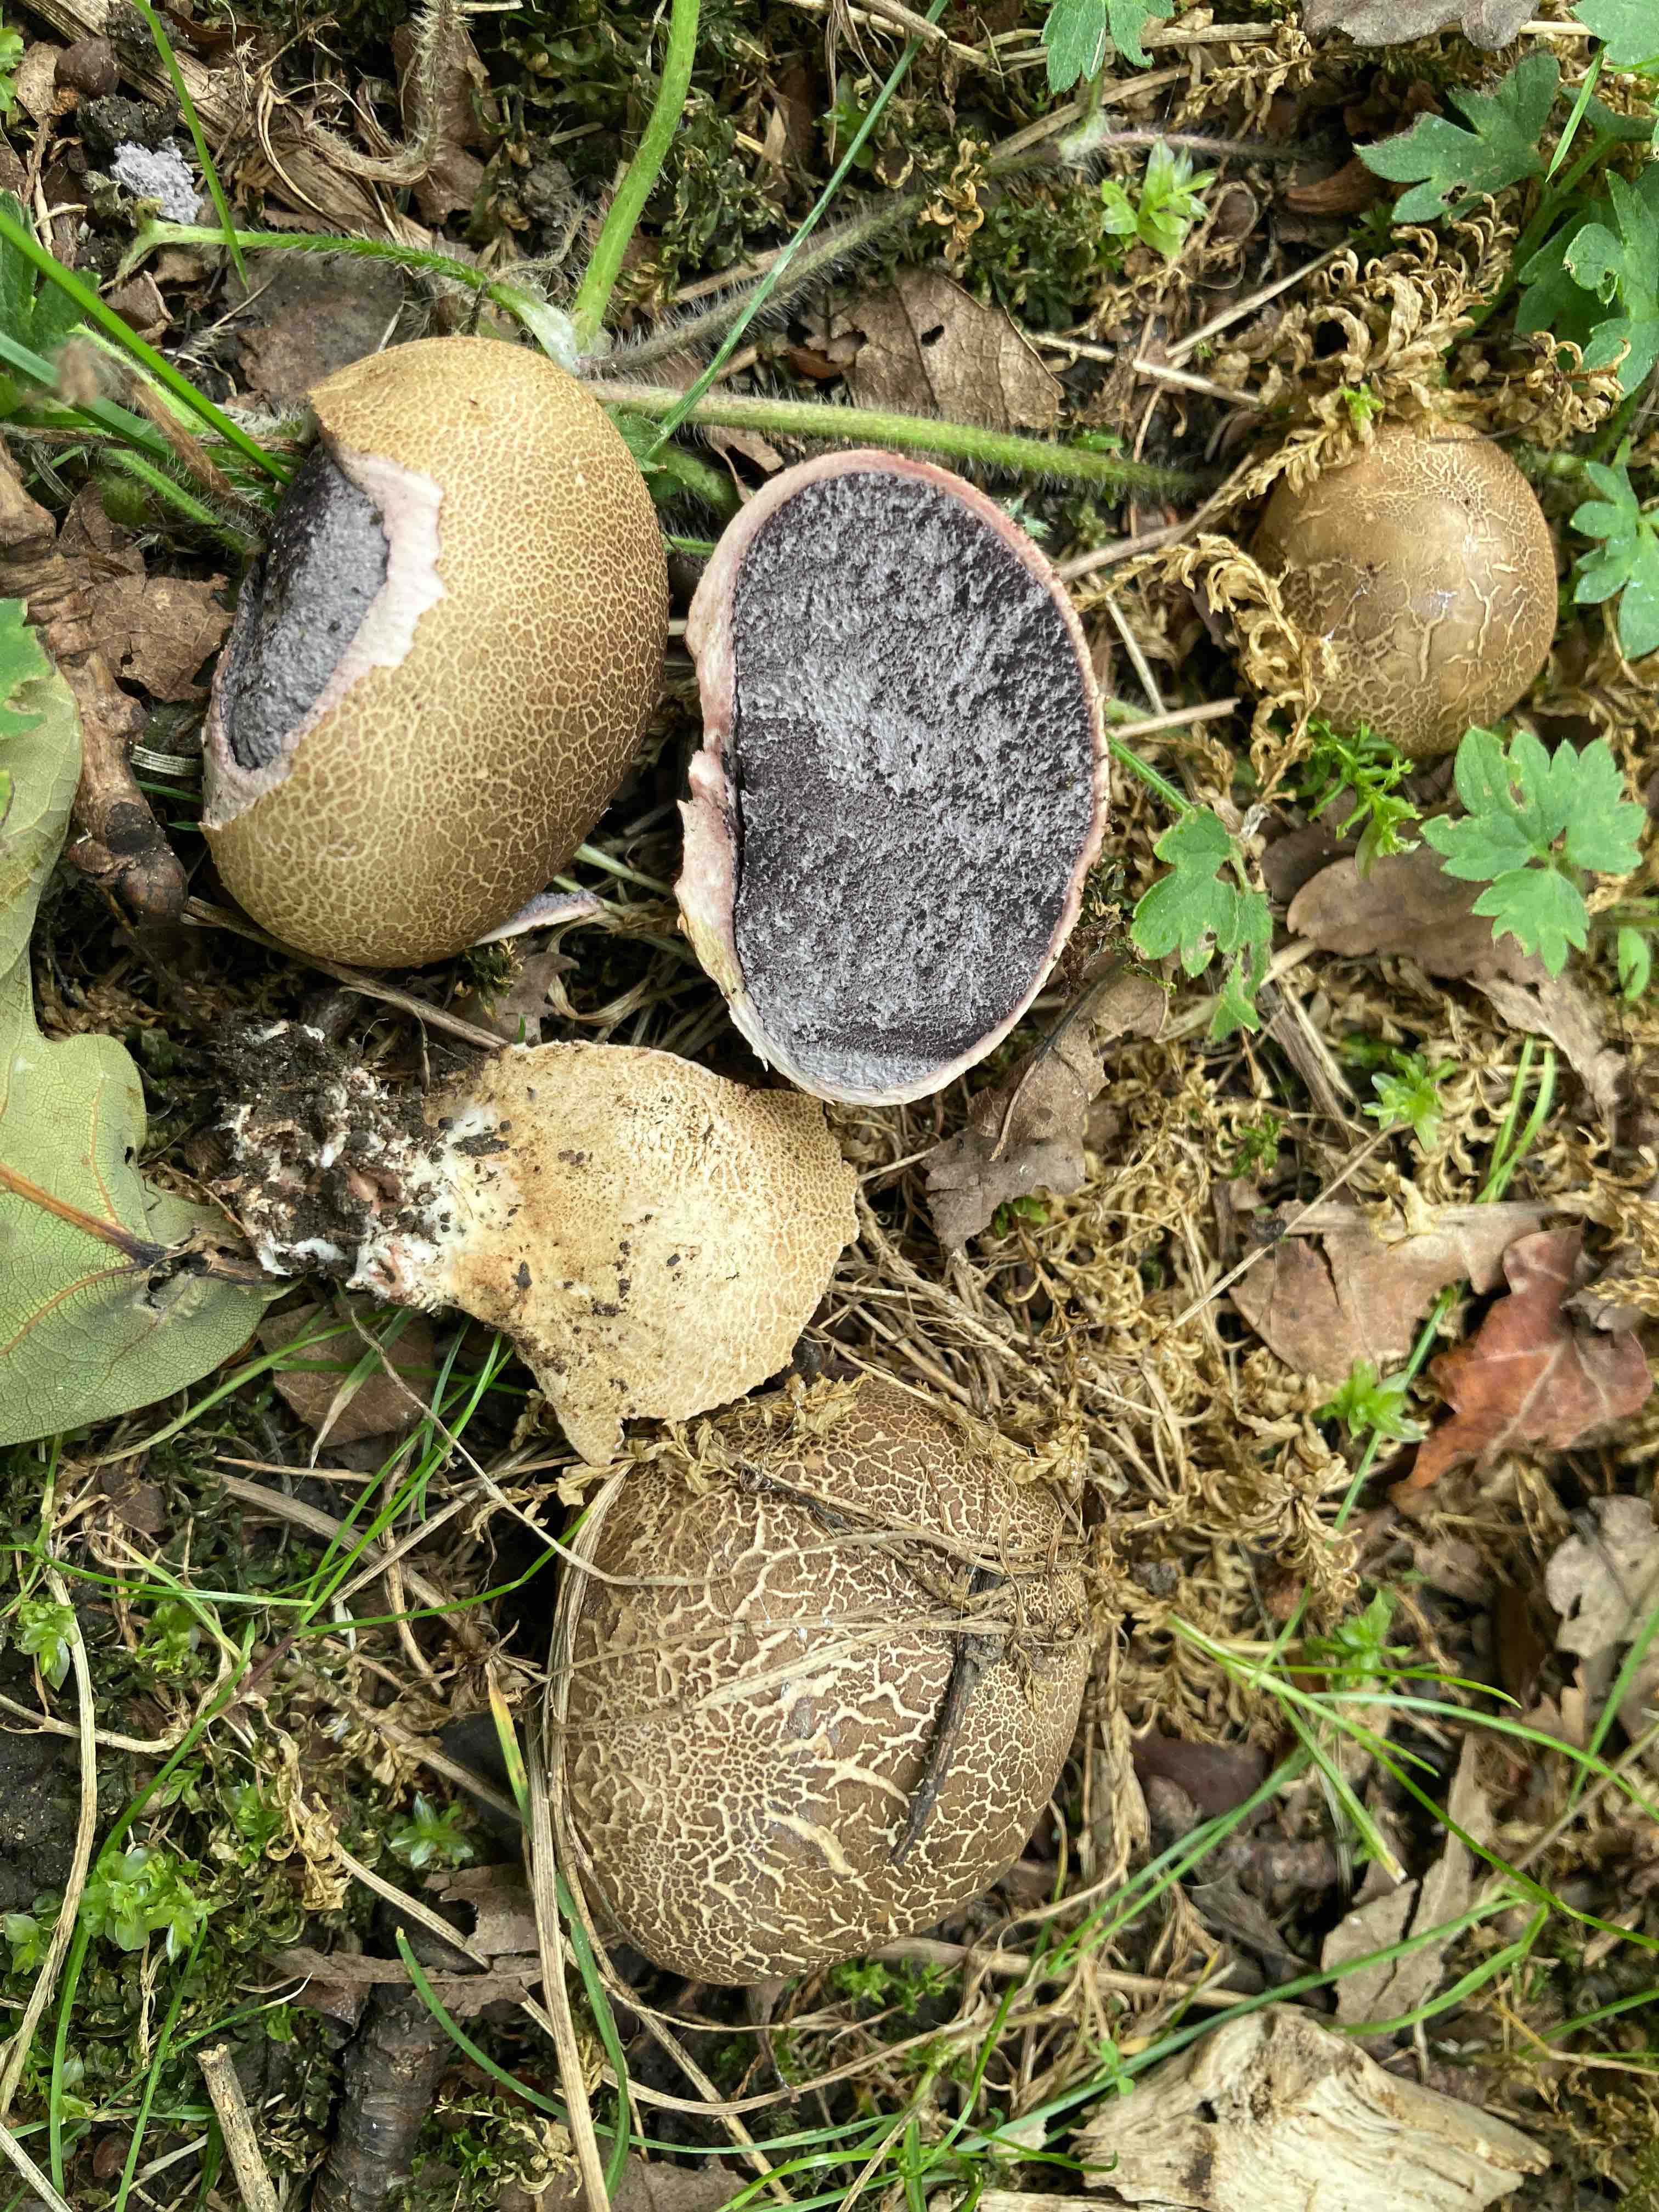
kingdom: Fungi
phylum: Basidiomycota
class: Agaricomycetes
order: Boletales
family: Sclerodermataceae
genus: Scleroderma
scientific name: Scleroderma verrucosum
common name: stilket bruskbold
